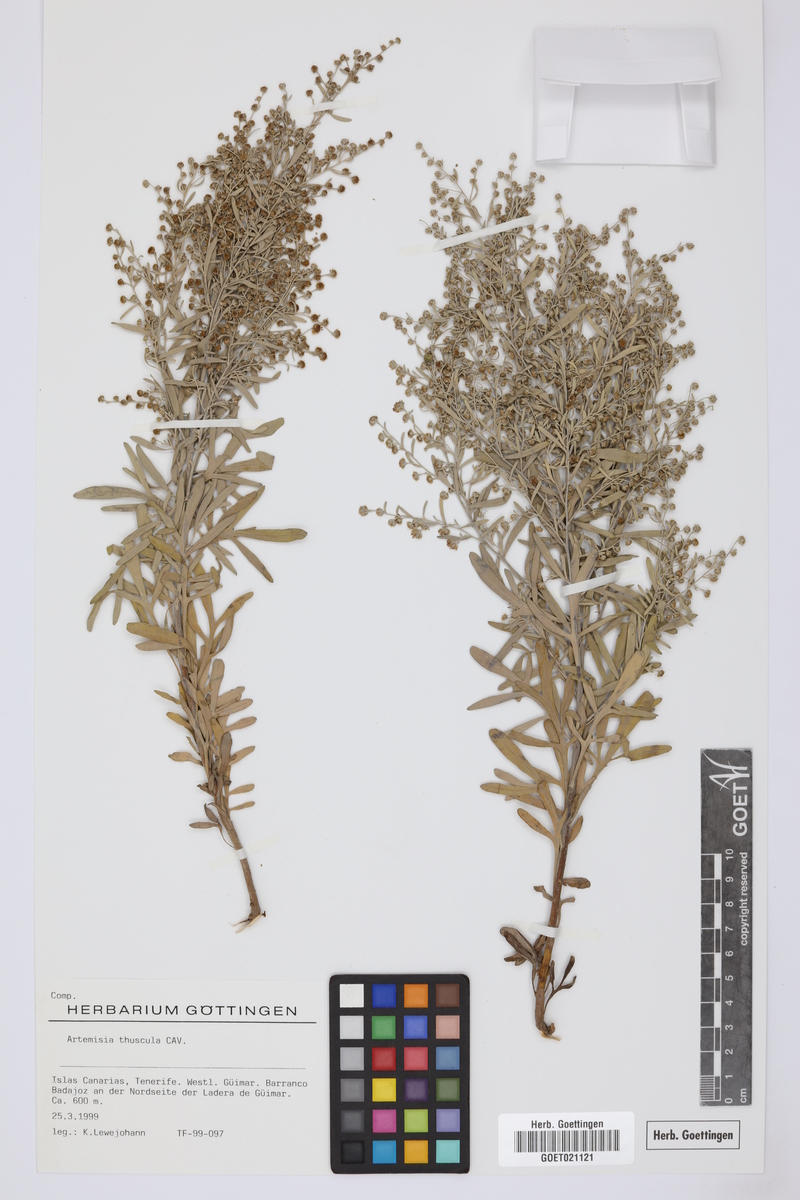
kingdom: Plantae
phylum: Tracheophyta
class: Magnoliopsida
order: Asterales
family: Asteraceae
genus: Artemisia
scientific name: Artemisia thuscula
